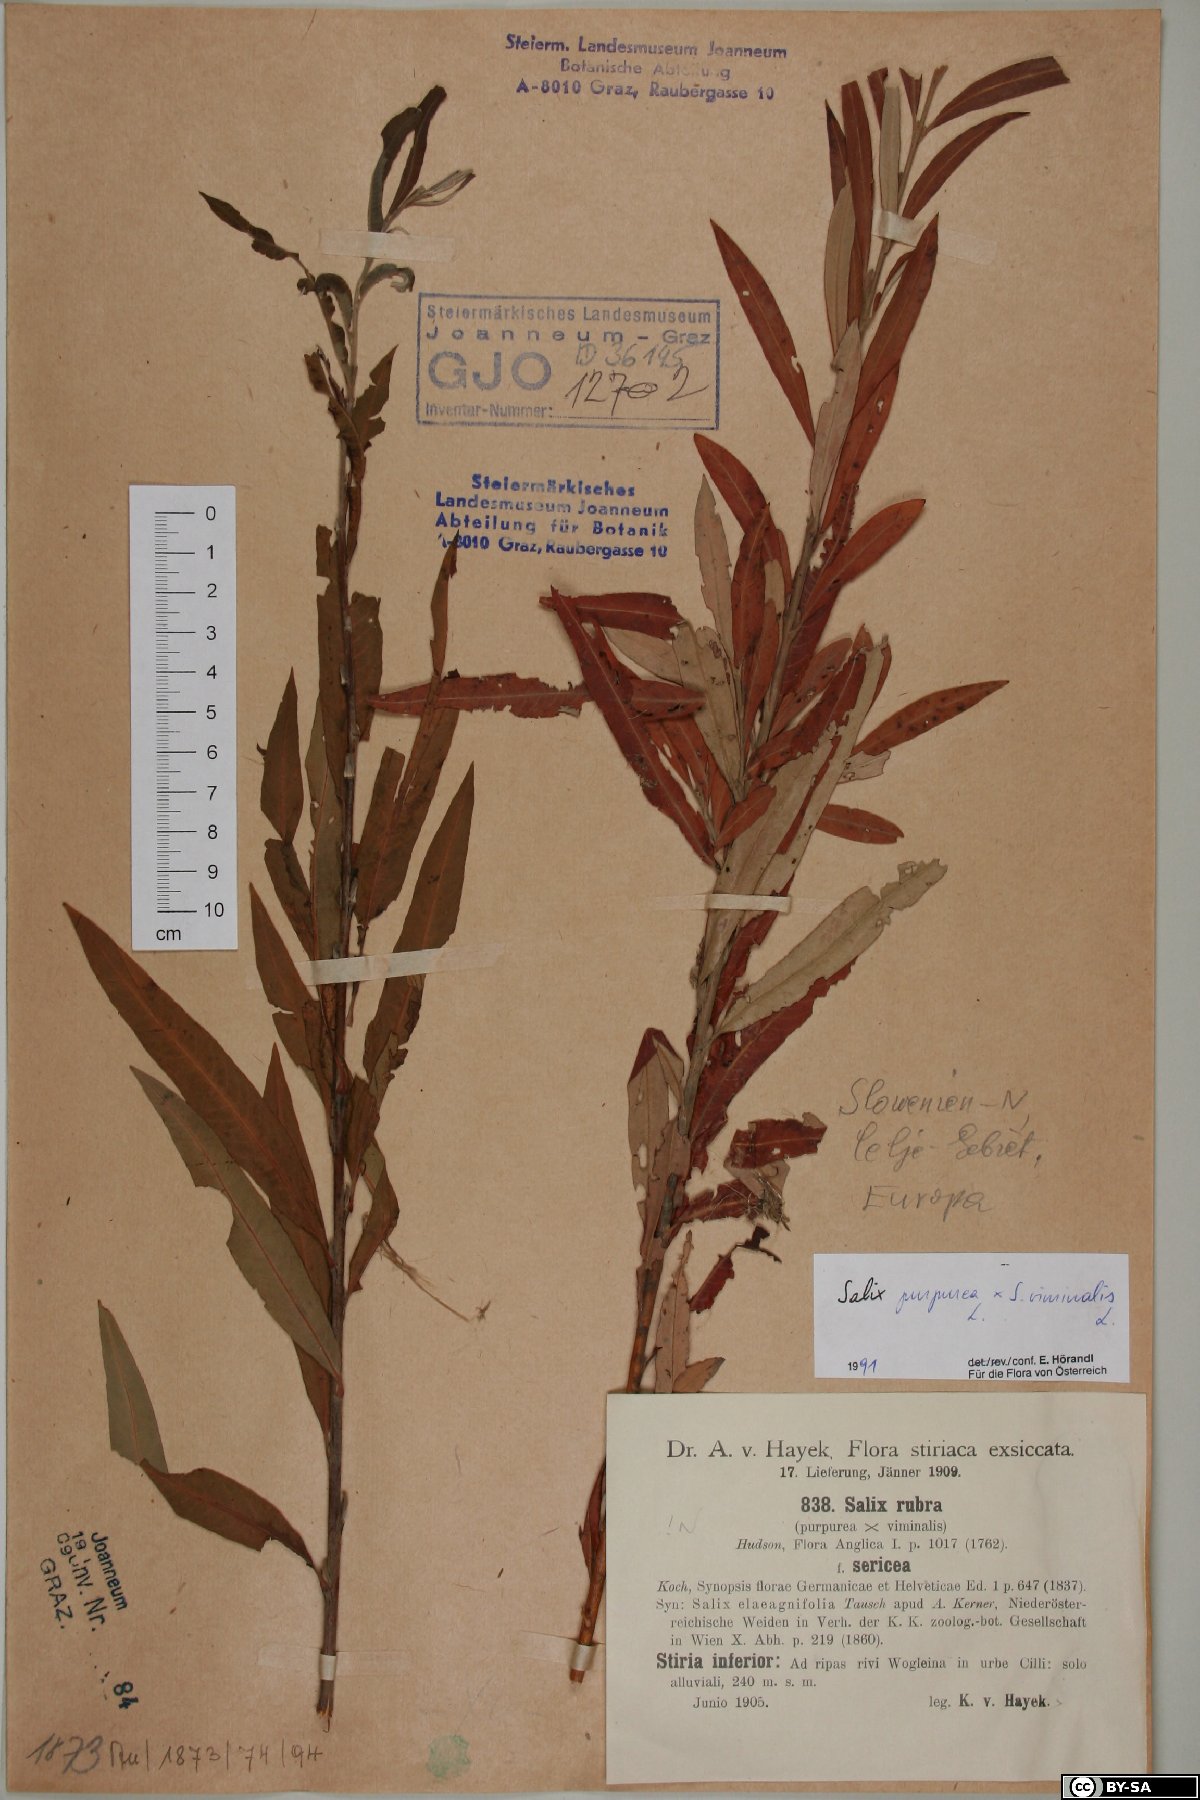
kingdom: Plantae
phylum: Tracheophyta
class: Magnoliopsida
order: Malpighiales
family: Salicaceae
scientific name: Salicaceae
